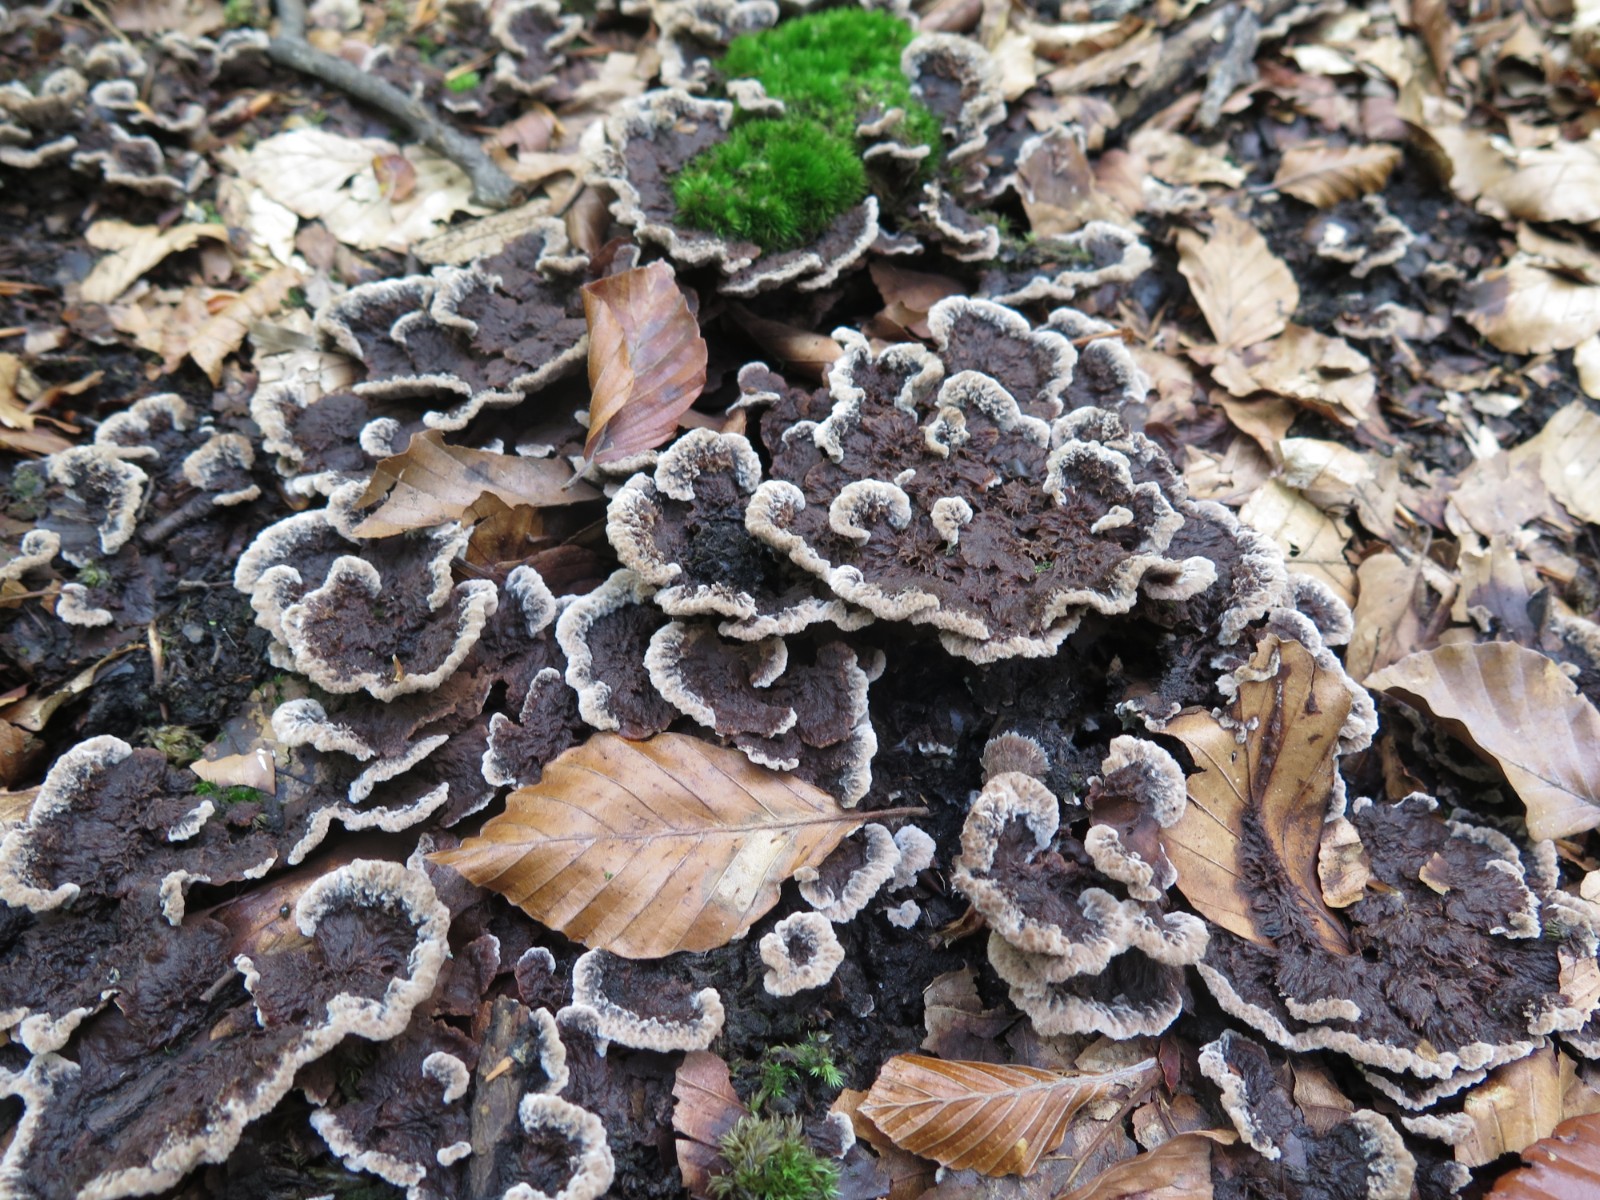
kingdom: Fungi
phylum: Basidiomycota
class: Agaricomycetes
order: Thelephorales
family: Thelephoraceae
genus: Phellodon
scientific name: Phellodon
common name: mørk duftpigsvamp
